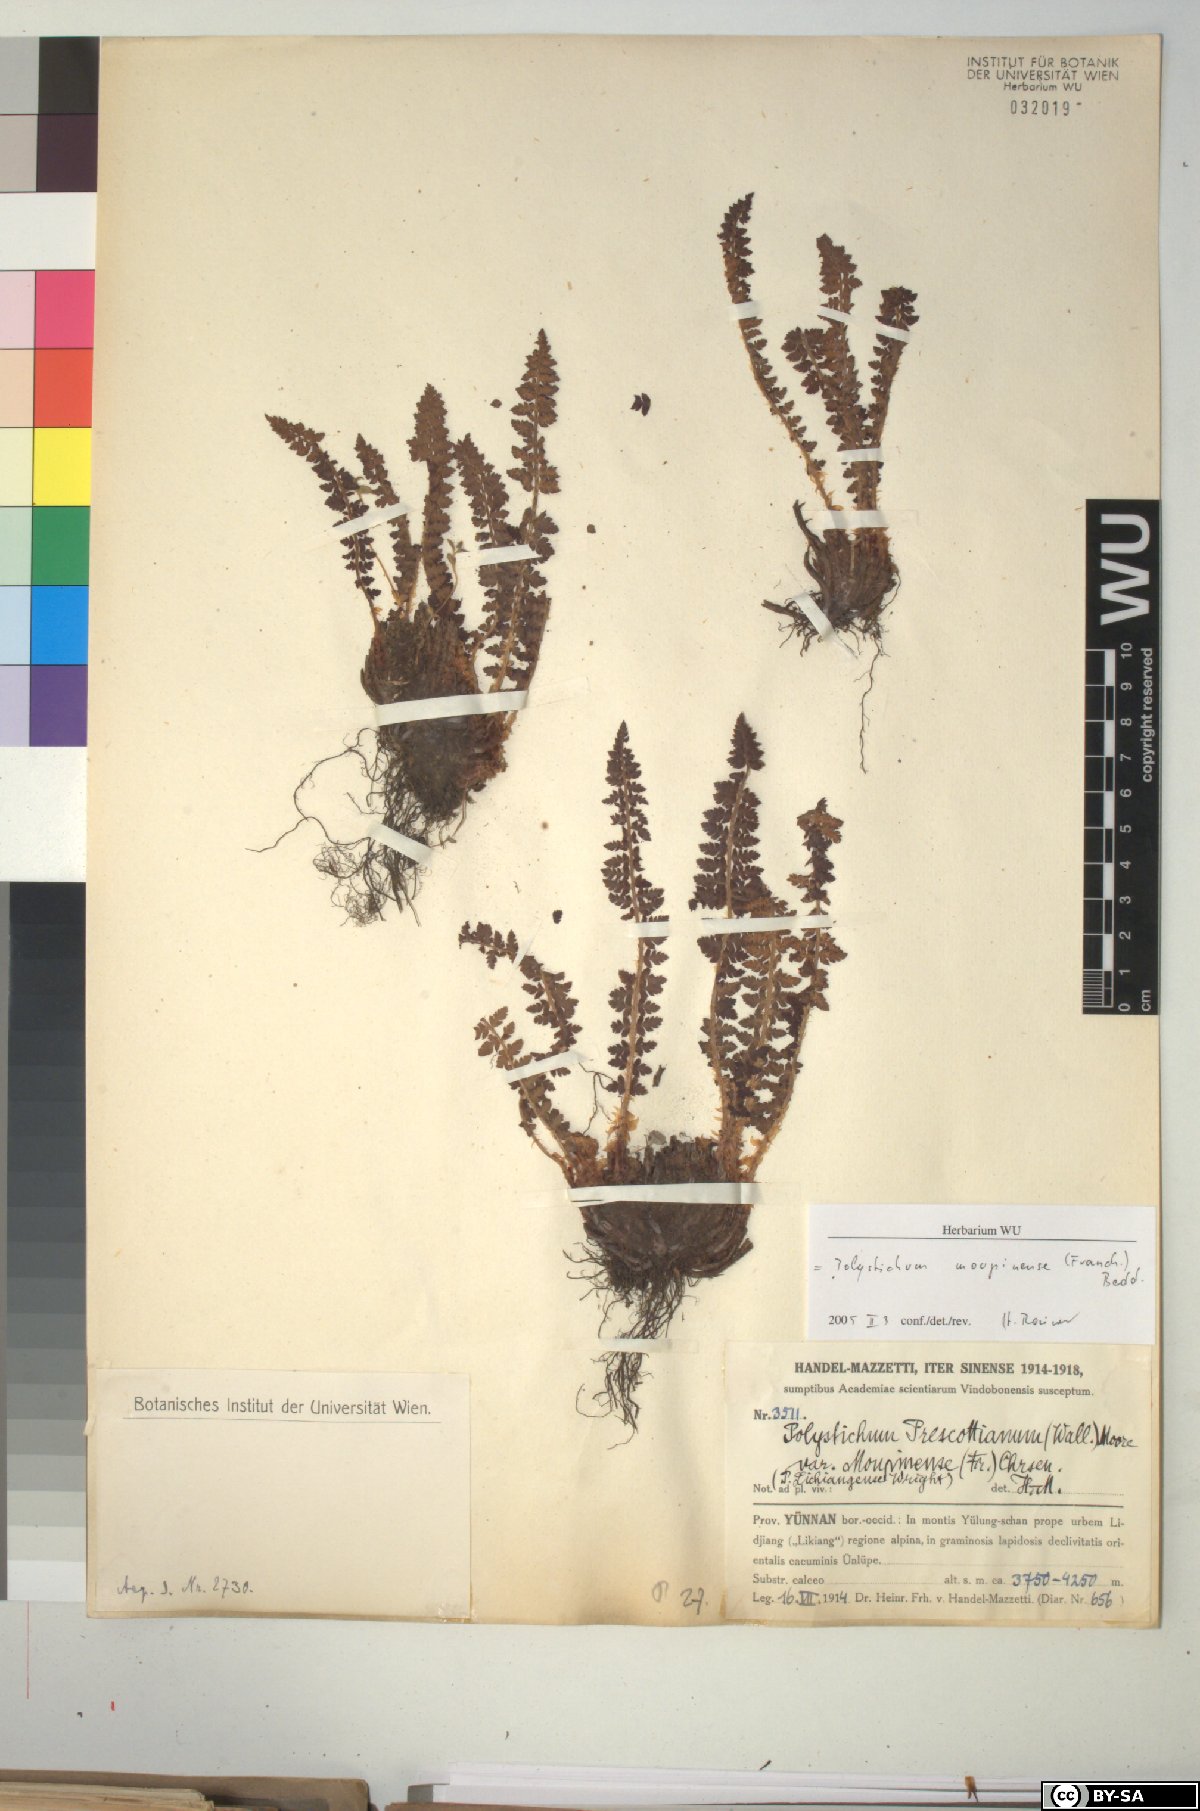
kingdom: Plantae
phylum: Tracheophyta
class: Polypodiopsida
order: Polypodiales
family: Dryopteridaceae
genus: Polystichum
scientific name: Polystichum prescottianum
